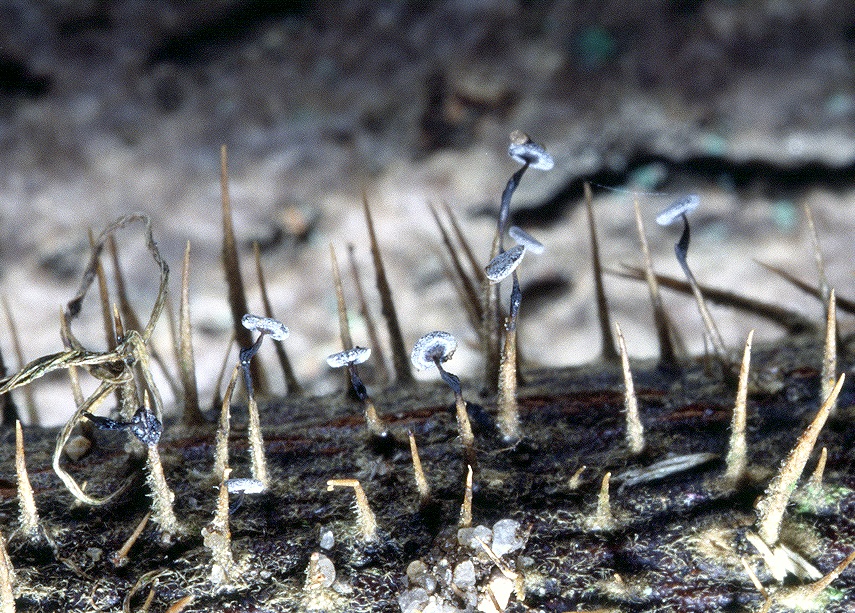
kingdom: Protozoa
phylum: Mycetozoa
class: Myxomycetes
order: Physarales
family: Didymiaceae
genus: Didymium
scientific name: Didymium clavus
